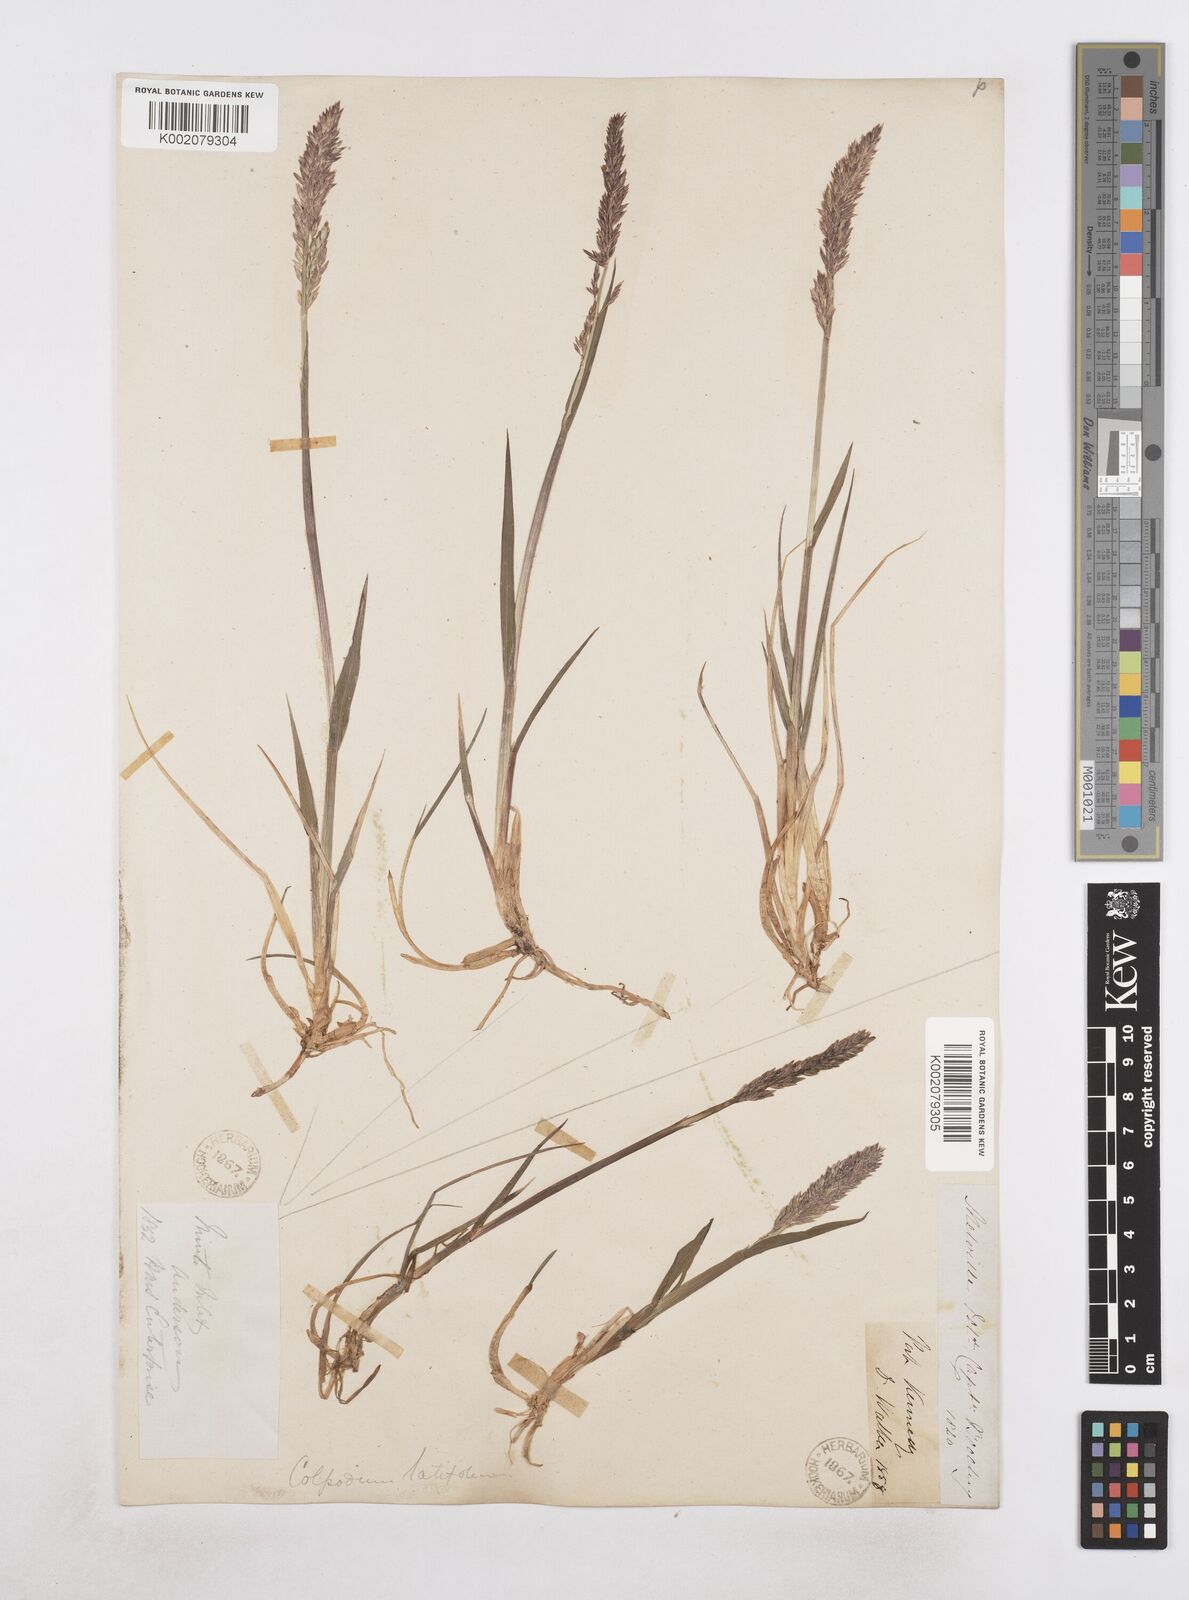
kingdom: Plantae
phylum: Tracheophyta
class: Liliopsida
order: Poales
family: Poaceae
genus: Arctagrostis
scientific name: Arctagrostis latifolia
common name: Arctic grass
